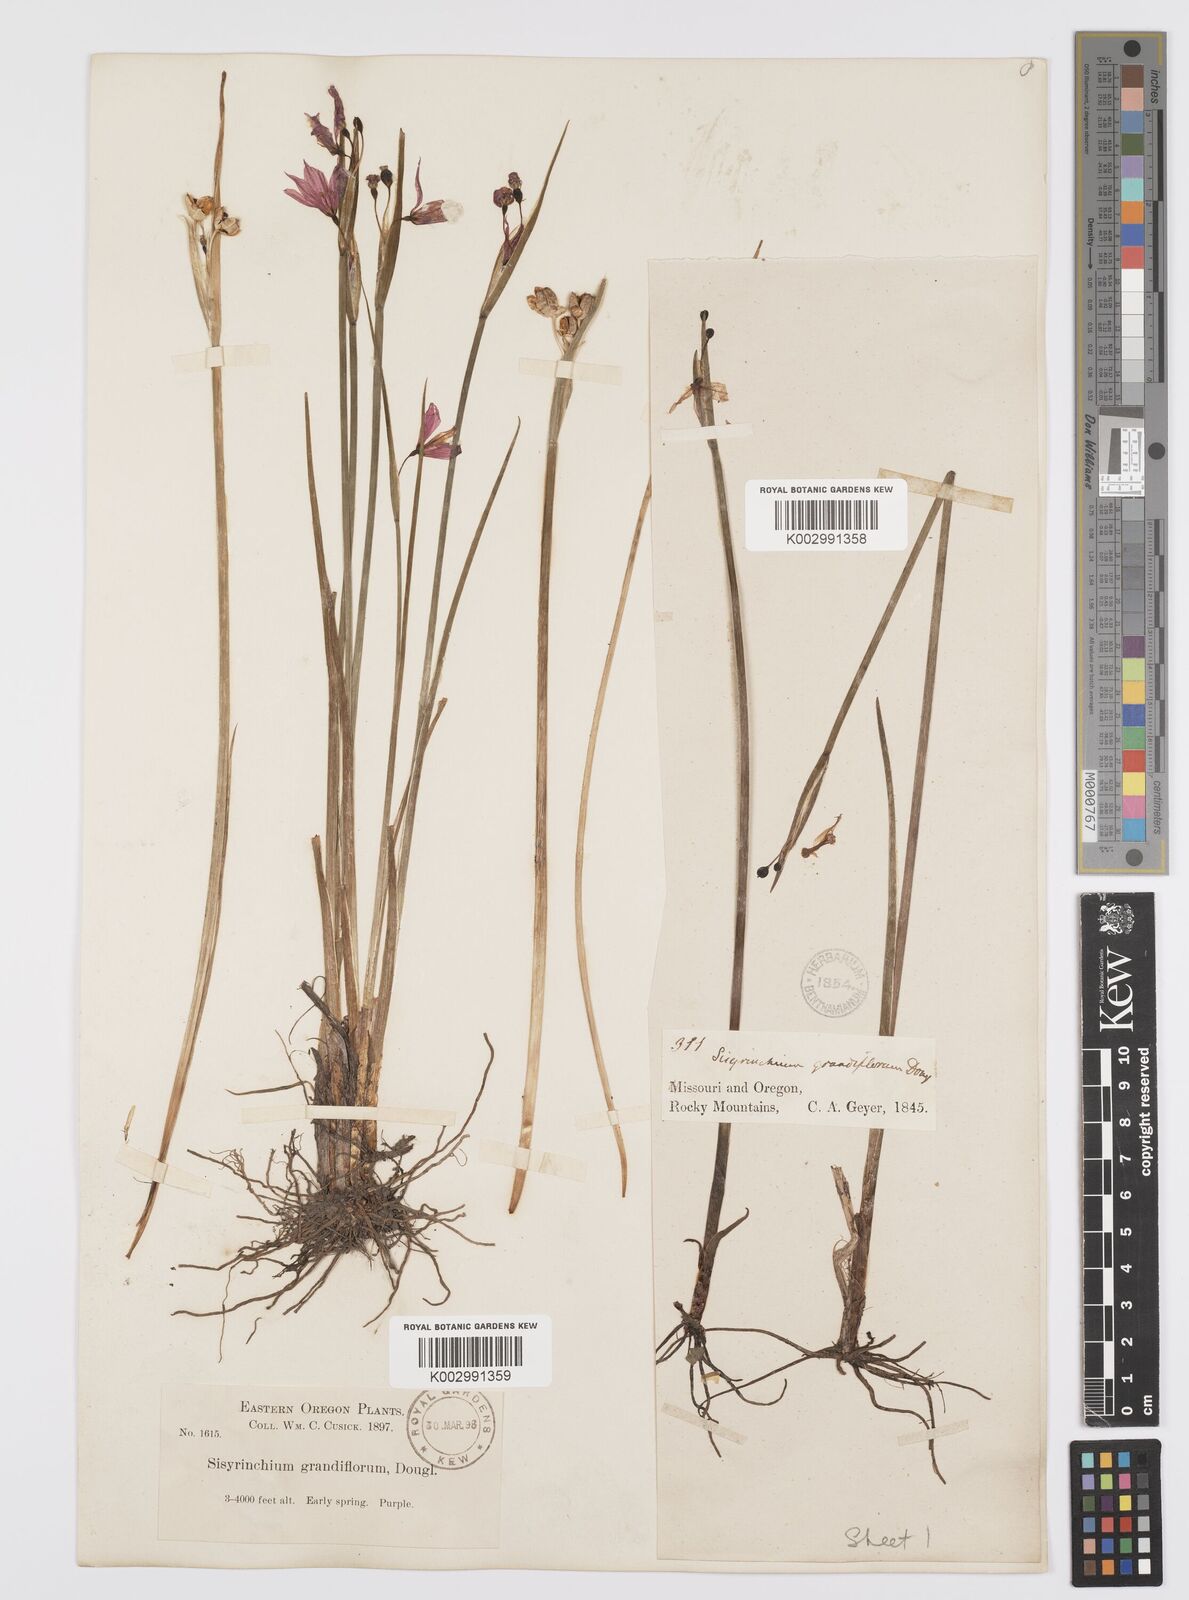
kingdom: Plantae
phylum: Tracheophyta
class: Liliopsida
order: Asparagales
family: Iridaceae
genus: Olsynium
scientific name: Olsynium douglasii
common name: Douglas' grasswidow
